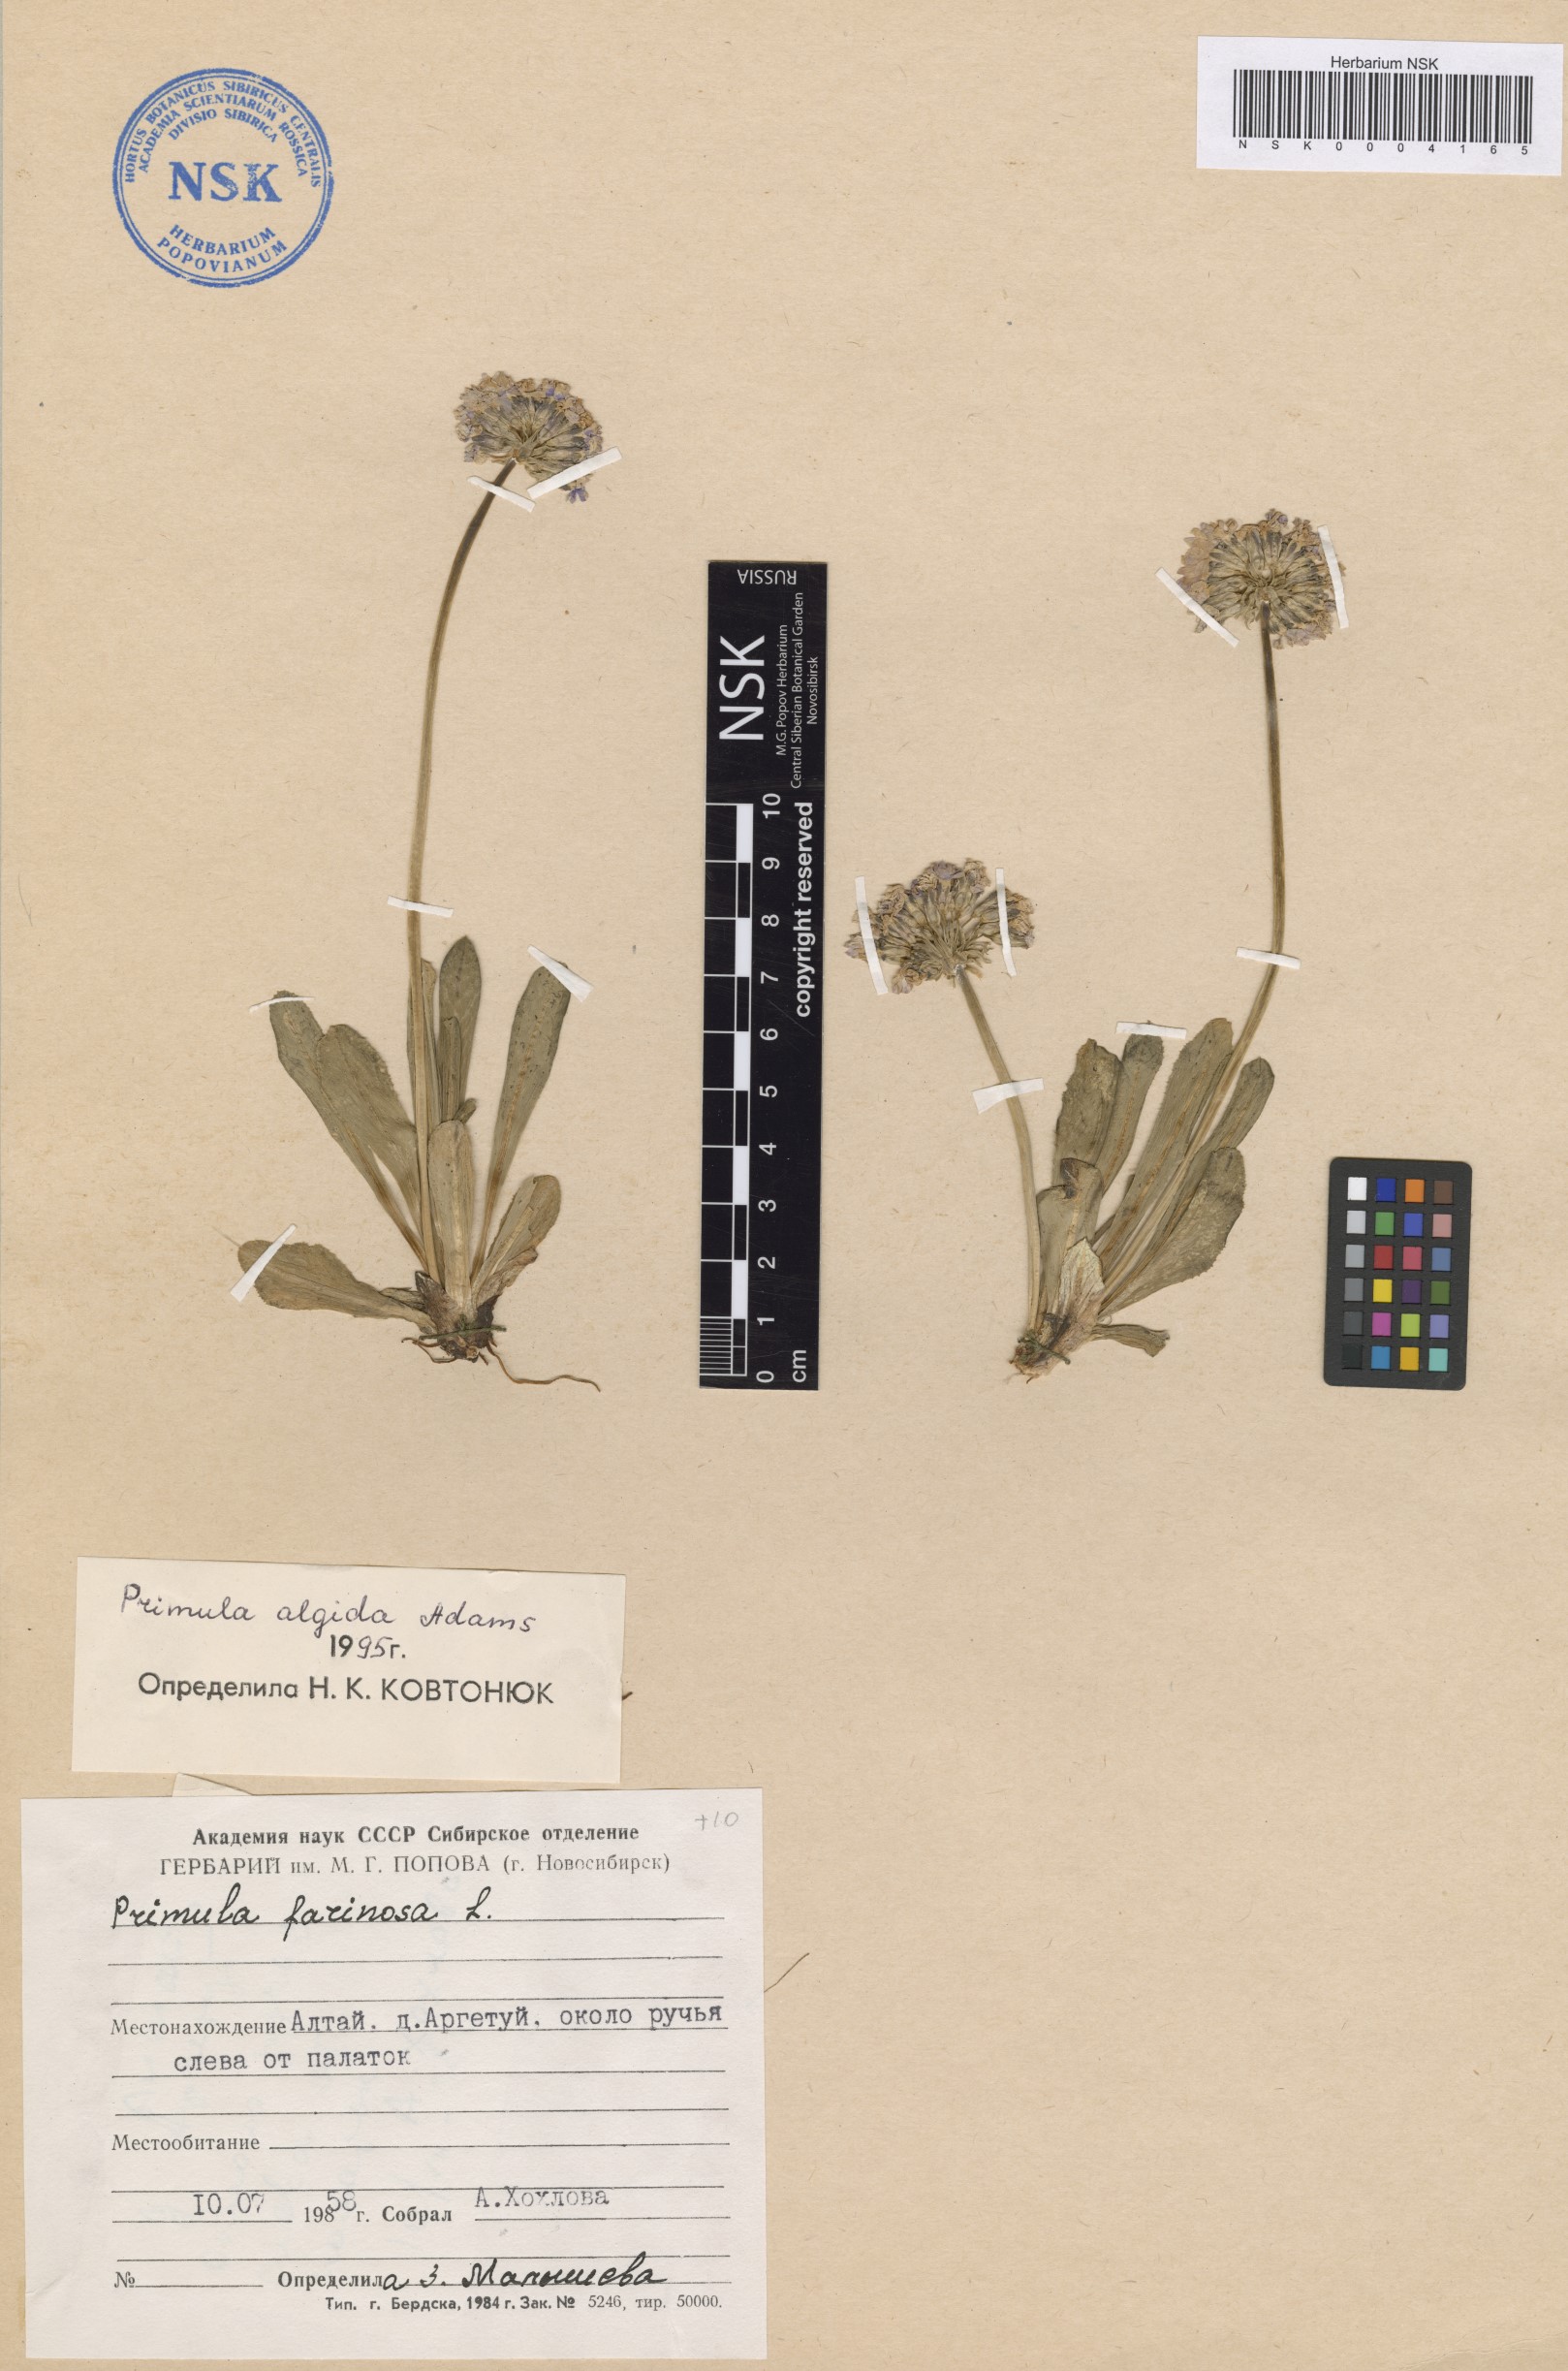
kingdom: Plantae
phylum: Tracheophyta
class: Magnoliopsida
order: Ericales
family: Primulaceae
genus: Primula
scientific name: Primula algida
